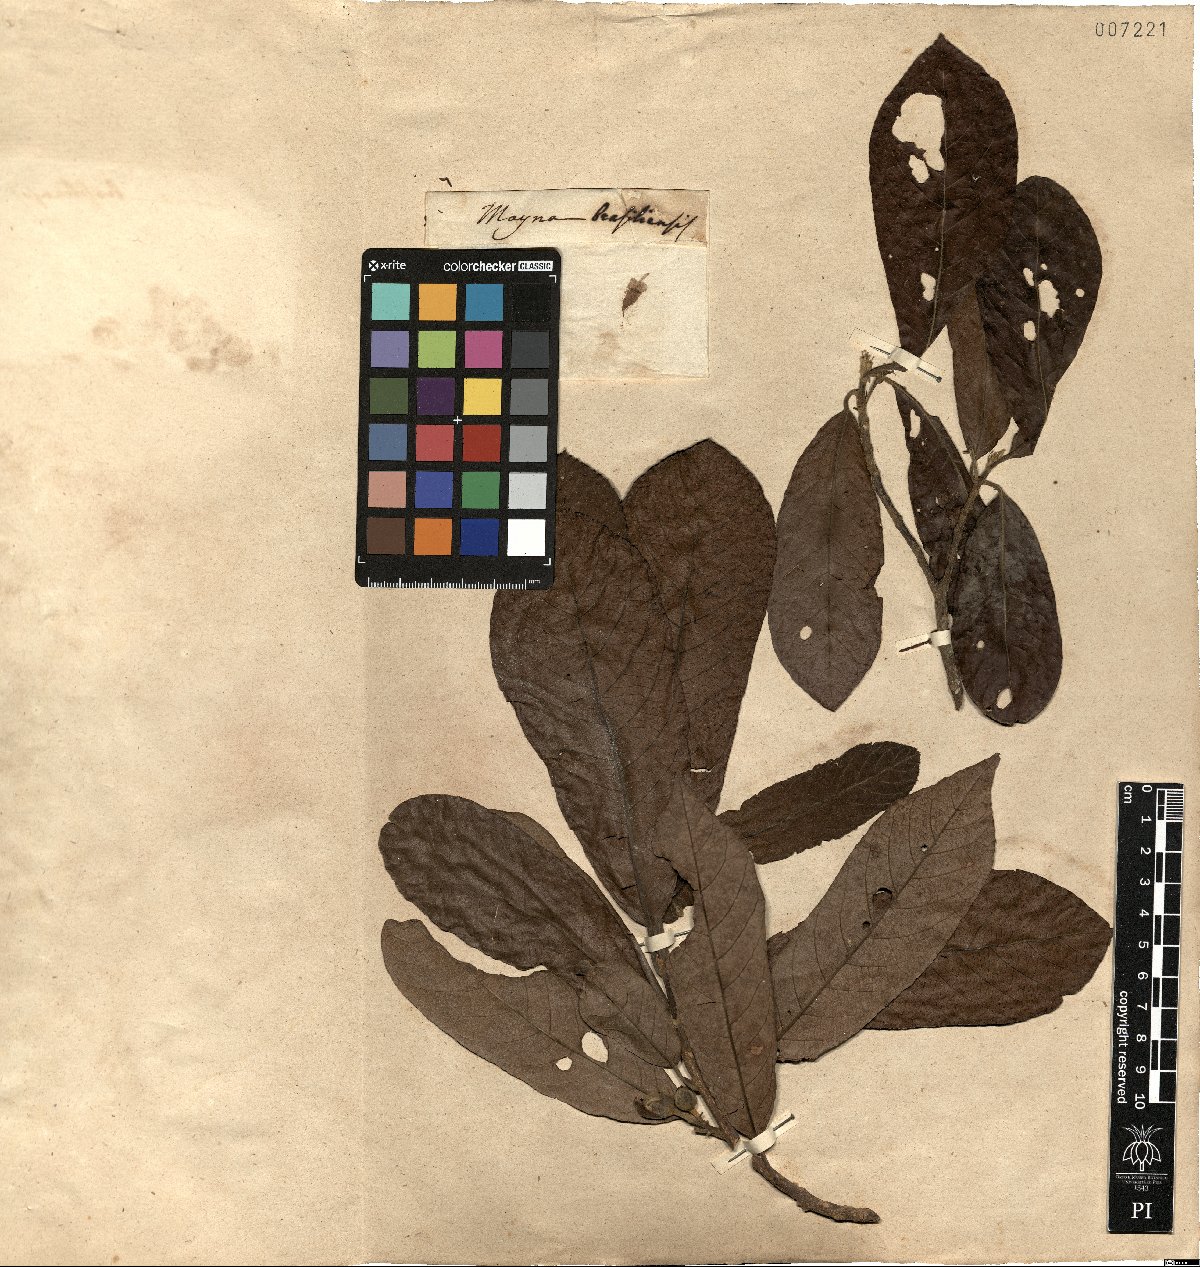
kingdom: Plantae
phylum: Tracheophyta
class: Magnoliopsida
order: Malpighiales
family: Achariaceae
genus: Carpotroche
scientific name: Carpotroche brasiliensis
